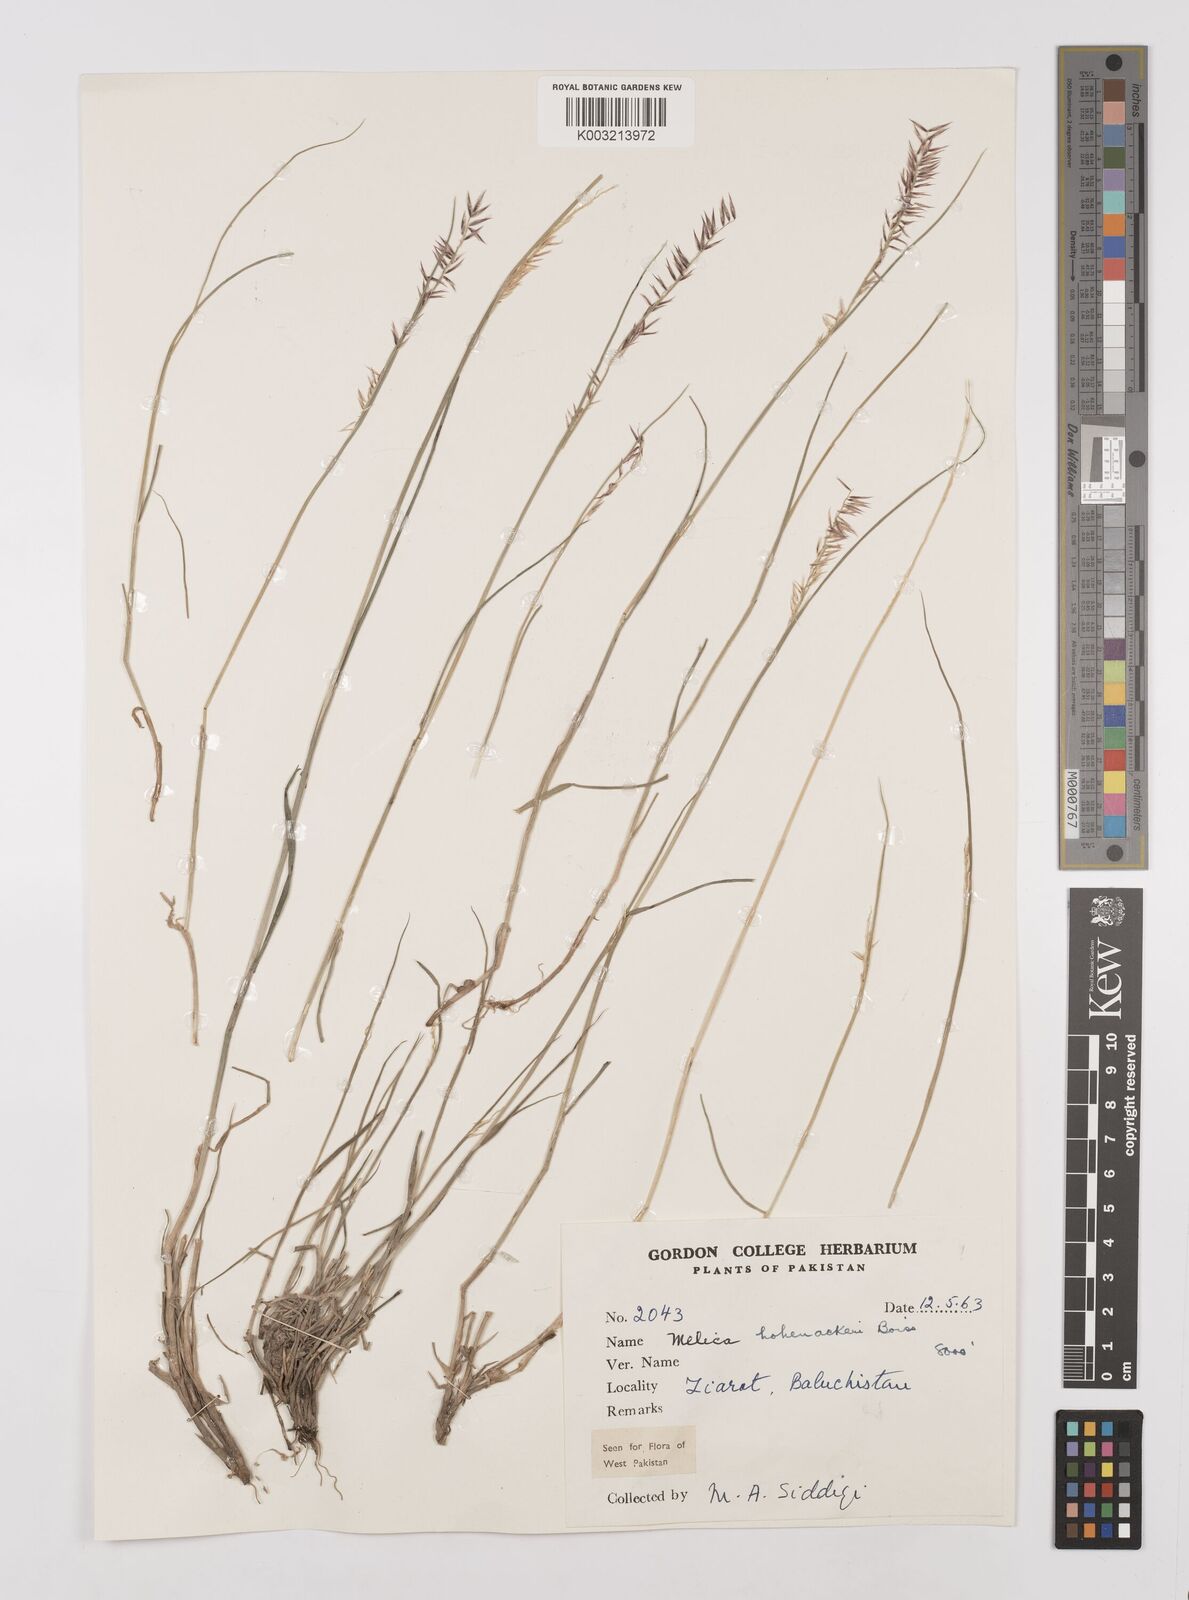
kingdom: Plantae
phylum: Tracheophyta
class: Liliopsida
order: Poales
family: Poaceae
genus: Melica
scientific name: Melica persica
